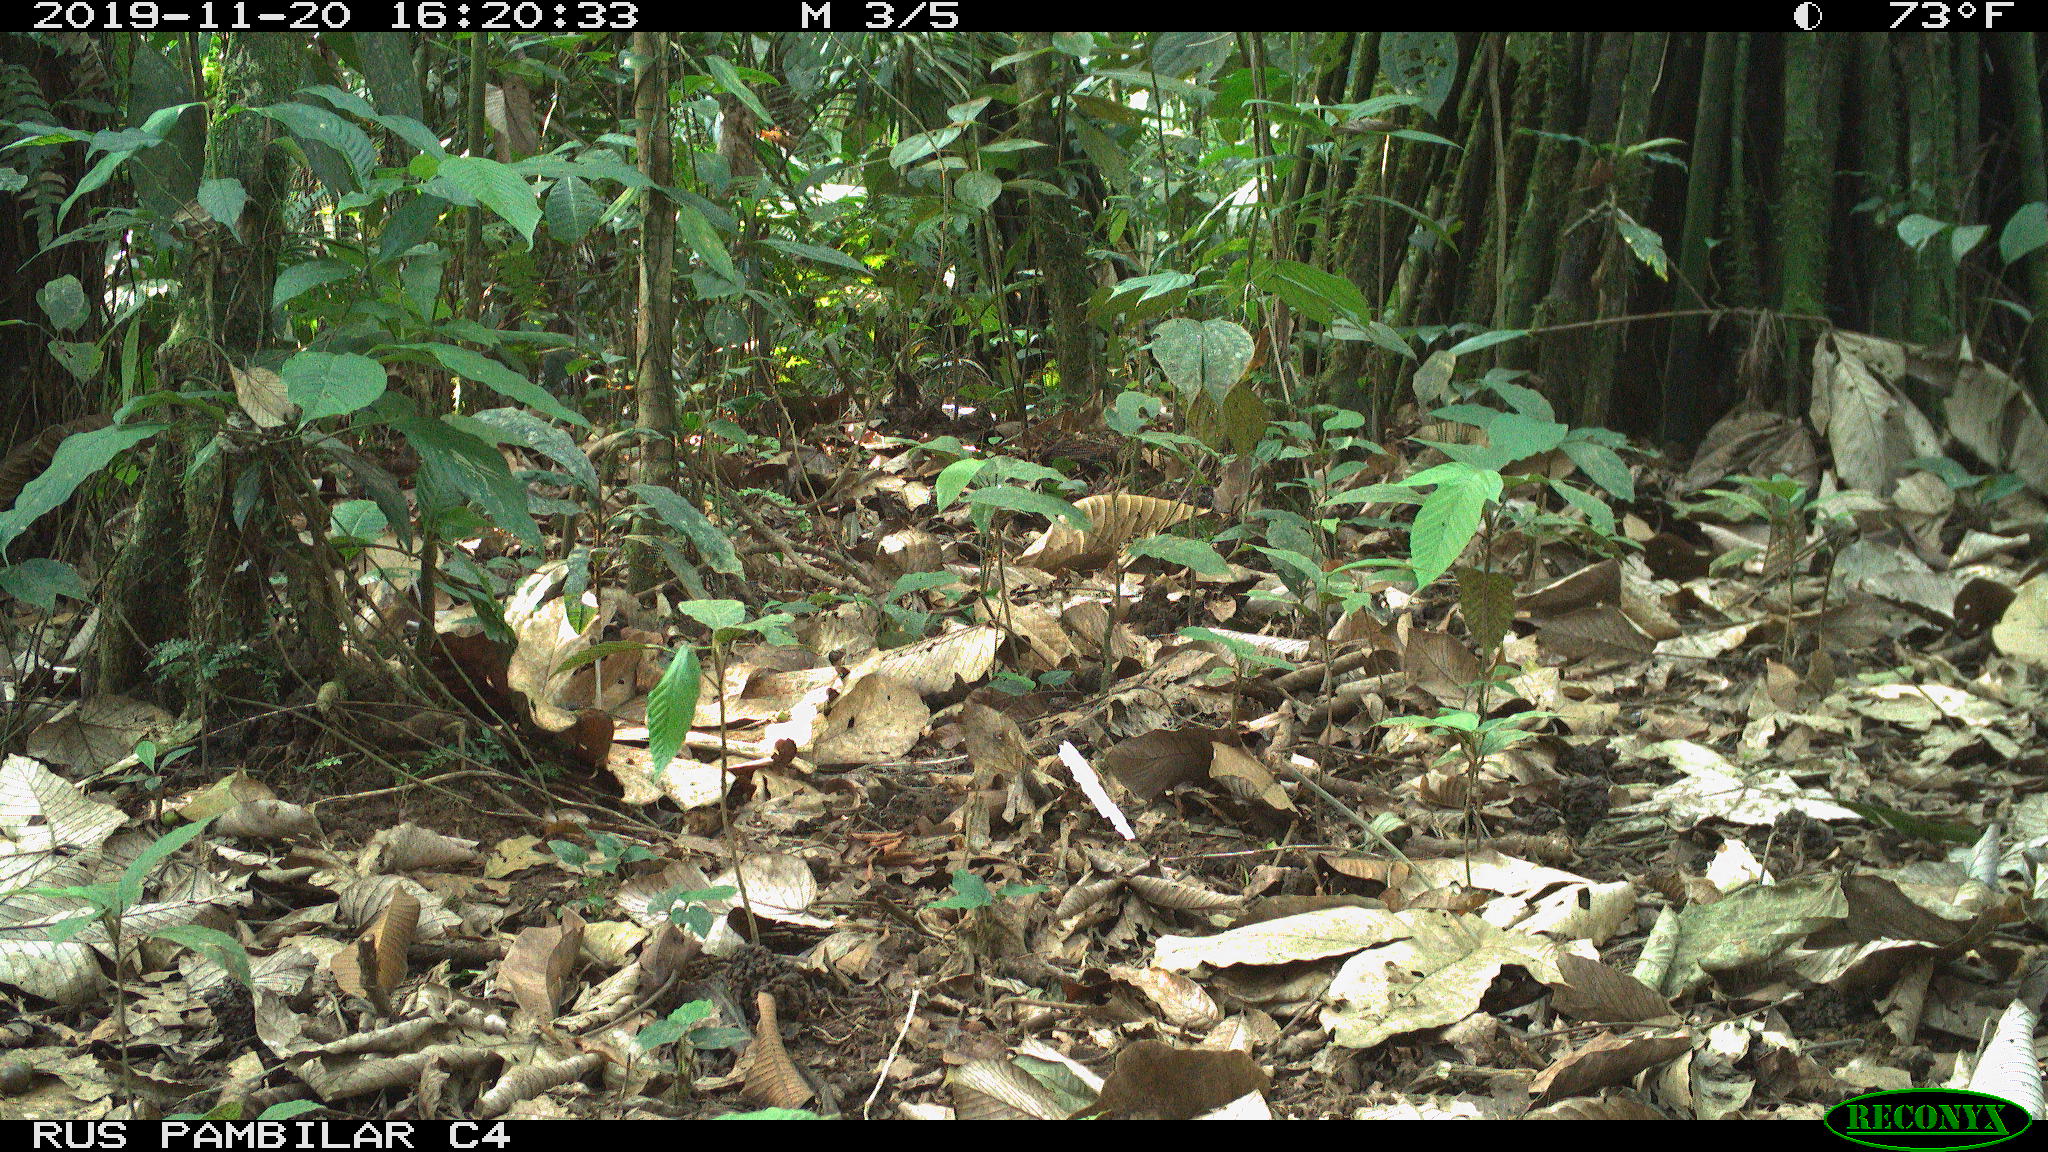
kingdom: Animalia
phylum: Chordata
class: Mammalia
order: Rodentia
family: Dasyproctidae
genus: Dasyprocta
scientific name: Dasyprocta punctata
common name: Central american agouti
